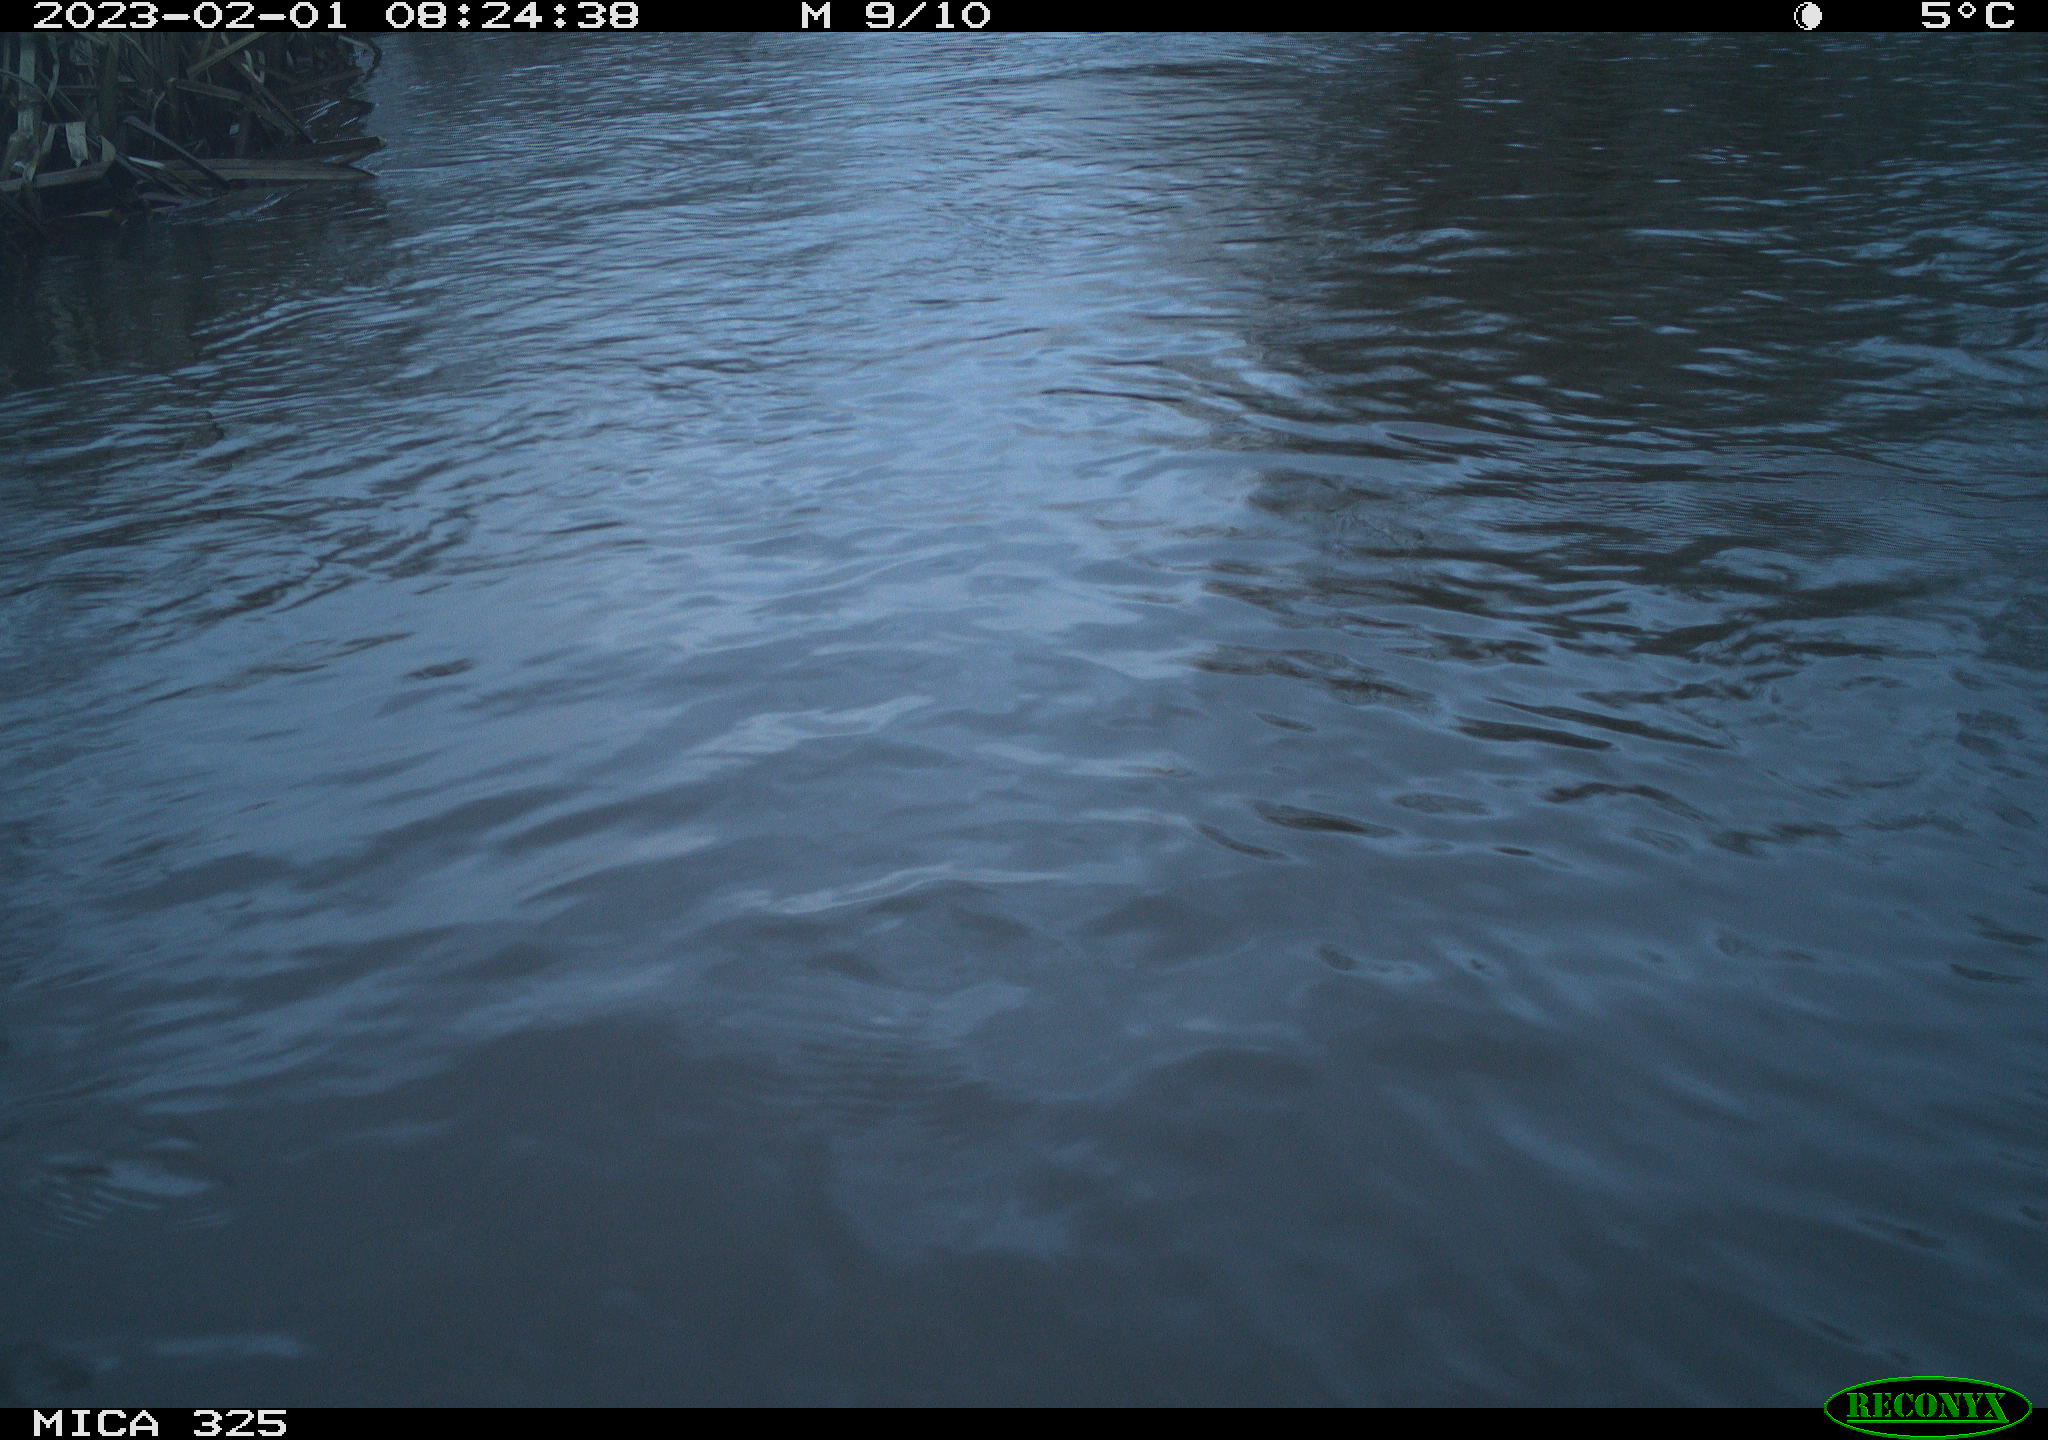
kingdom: Animalia
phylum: Chordata
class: Aves
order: Gruiformes
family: Rallidae
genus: Fulica
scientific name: Fulica atra
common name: Eurasian coot
